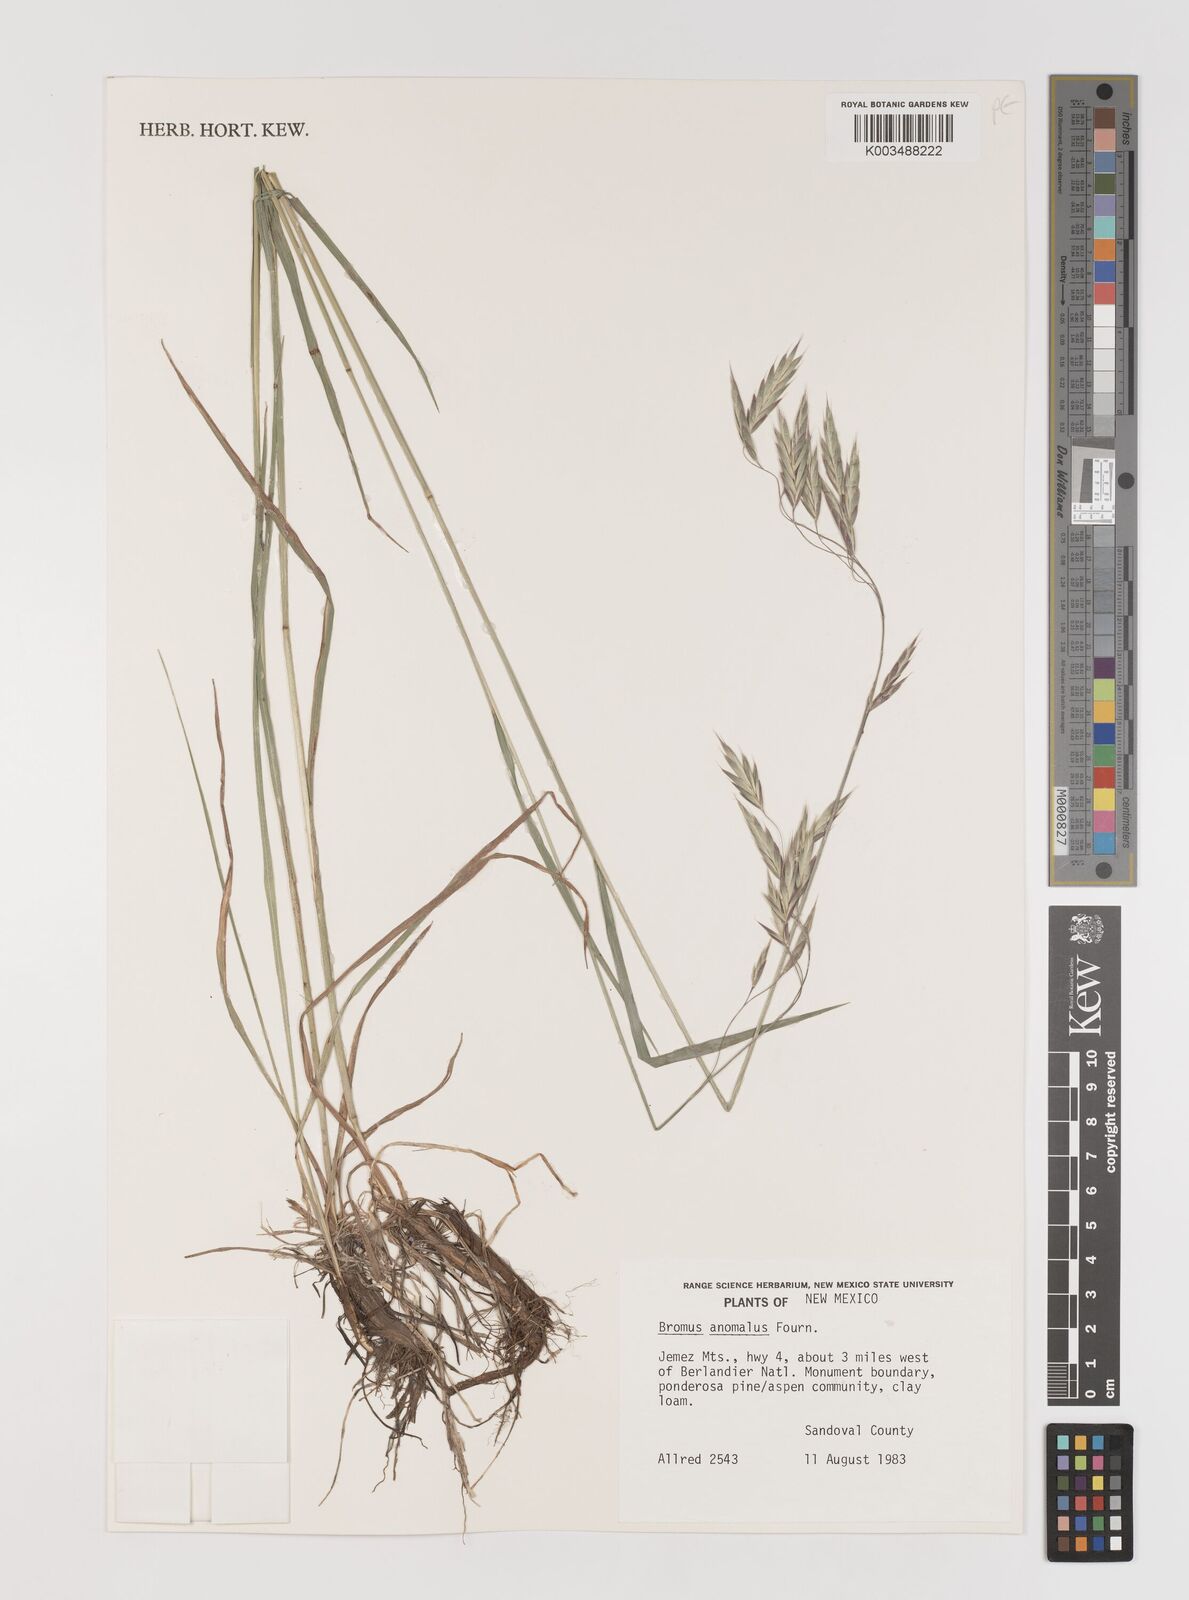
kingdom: Plantae
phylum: Tracheophyta
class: Liliopsida
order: Poales
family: Poaceae
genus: Bromus
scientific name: Bromus anomalus
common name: Nodding brome
